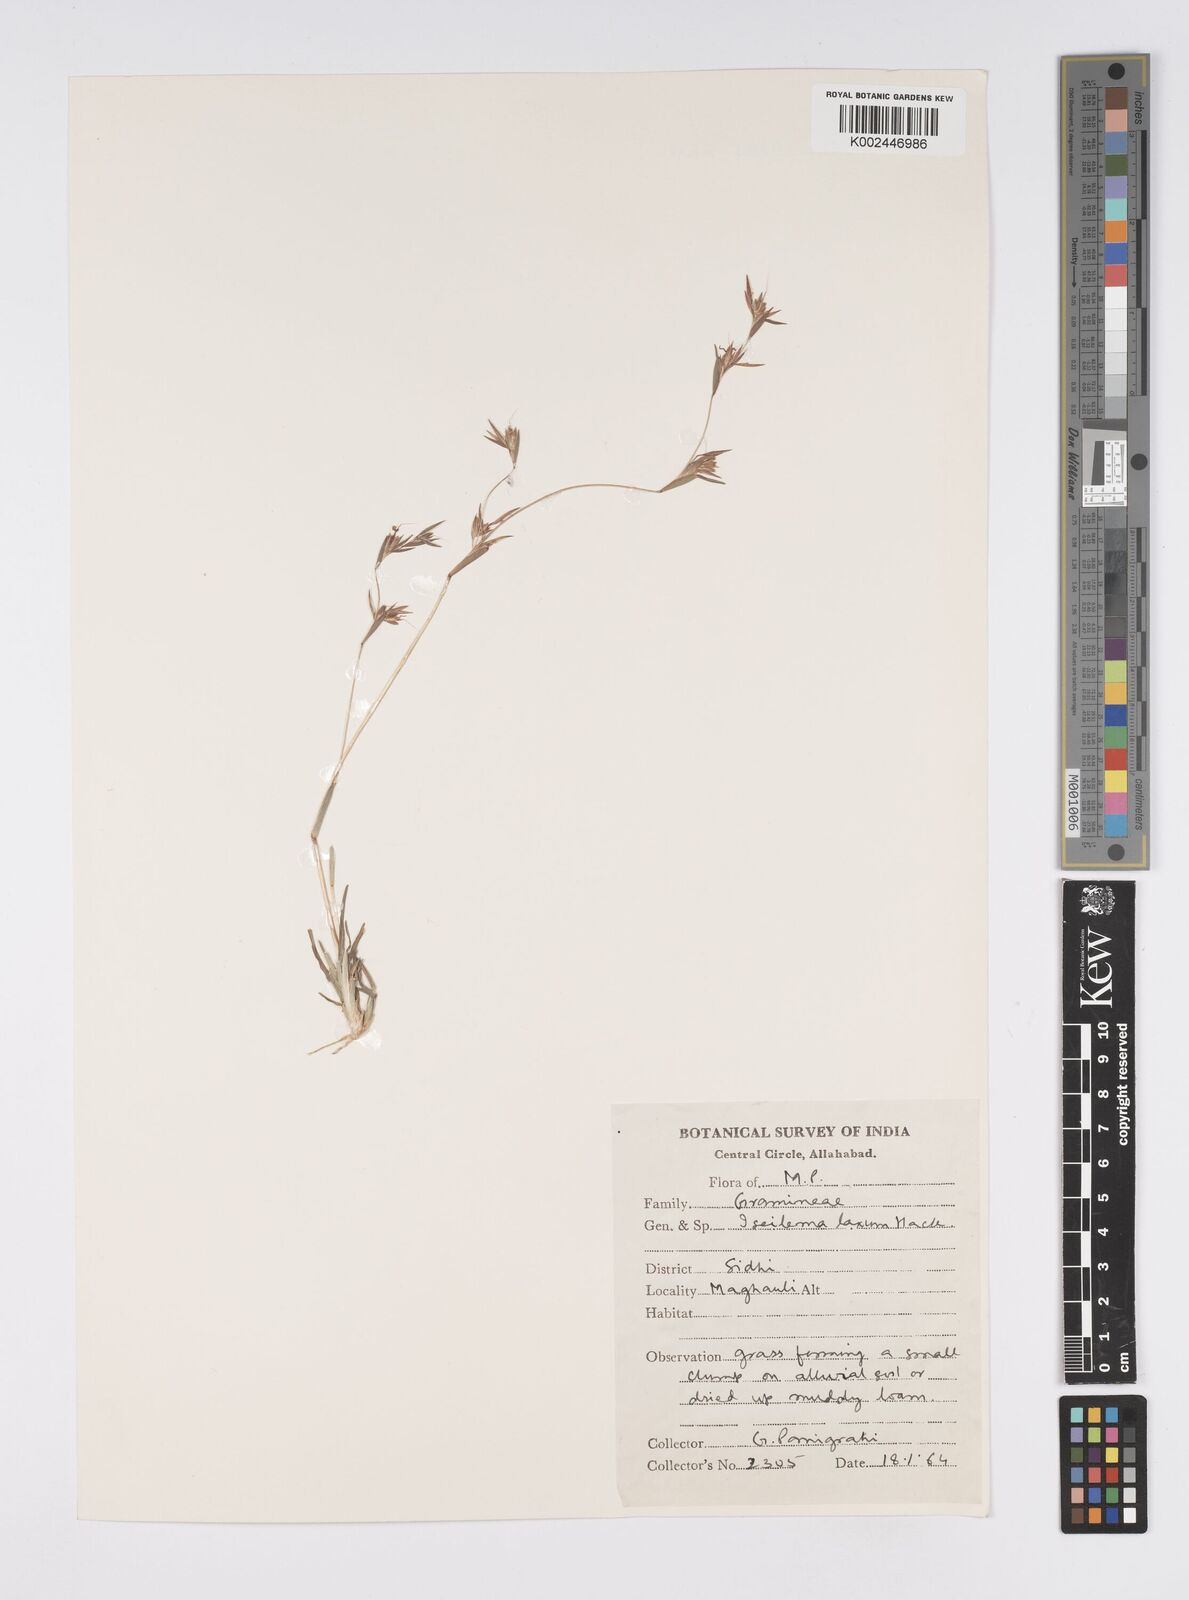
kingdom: Plantae
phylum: Tracheophyta
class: Liliopsida
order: Poales
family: Poaceae
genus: Iseilema
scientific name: Iseilema prostratum
